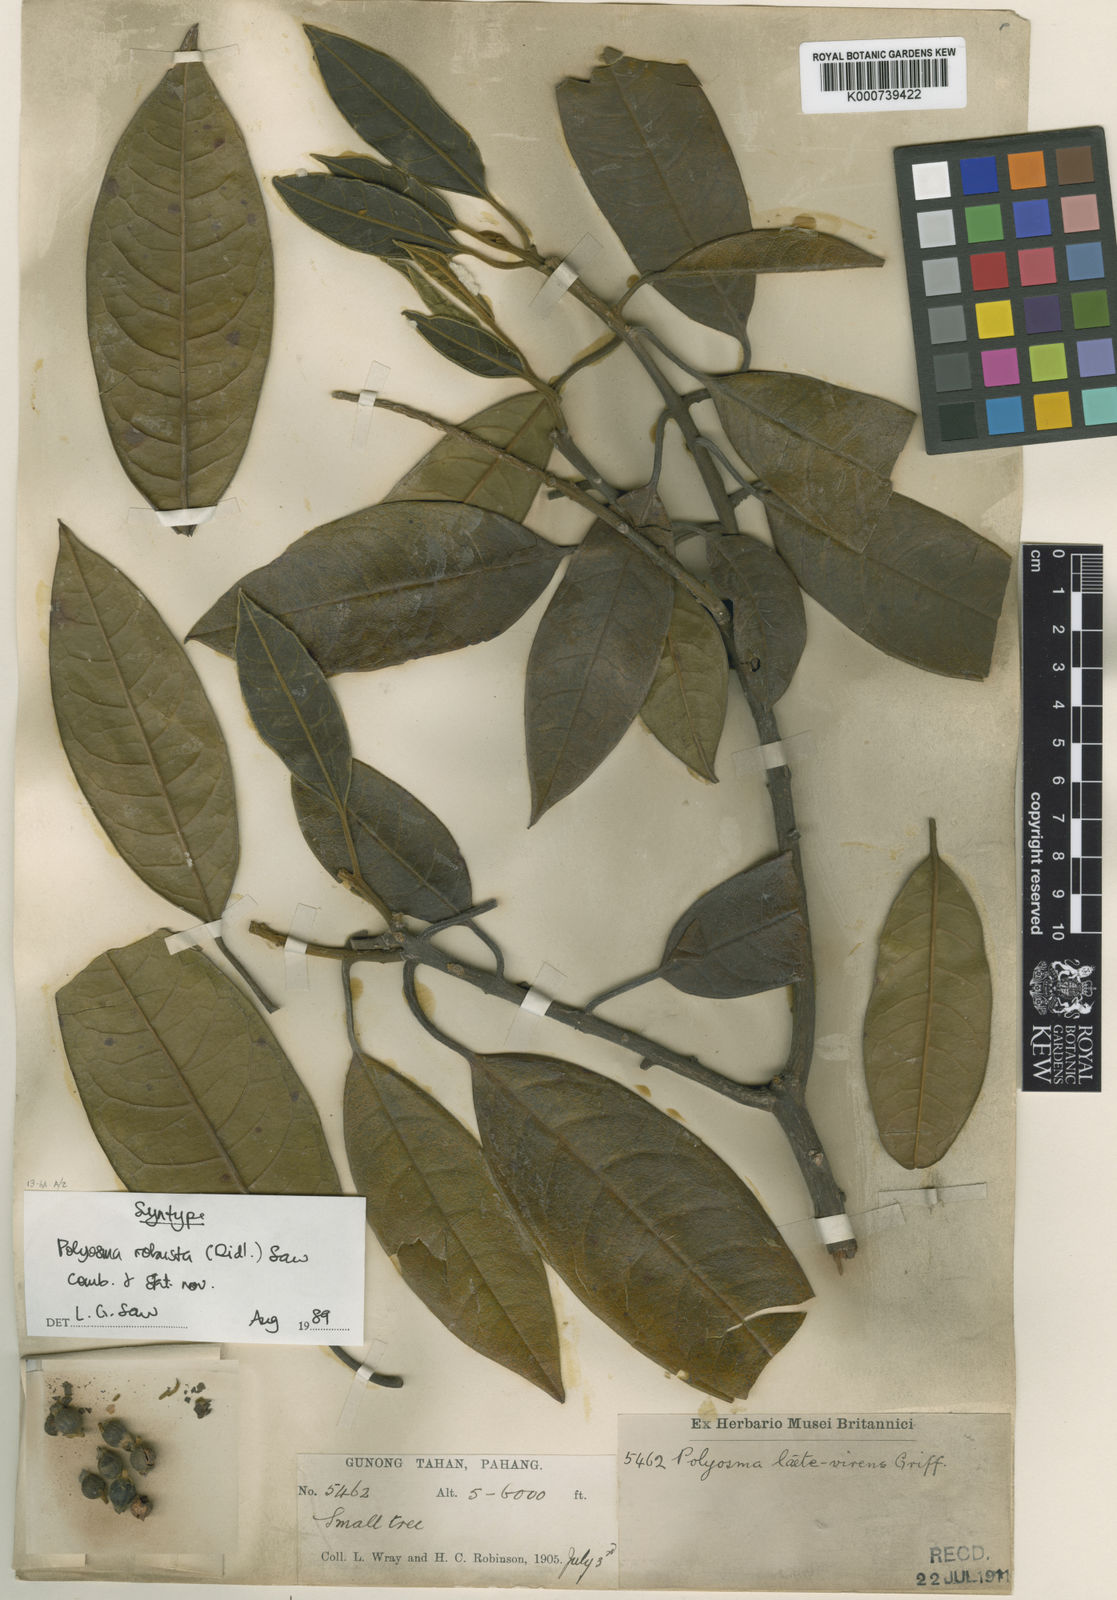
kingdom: Plantae
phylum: Tracheophyta
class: Magnoliopsida
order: Escalloniales
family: Escalloniaceae
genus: Polyosma
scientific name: Polyosma ridleyi
